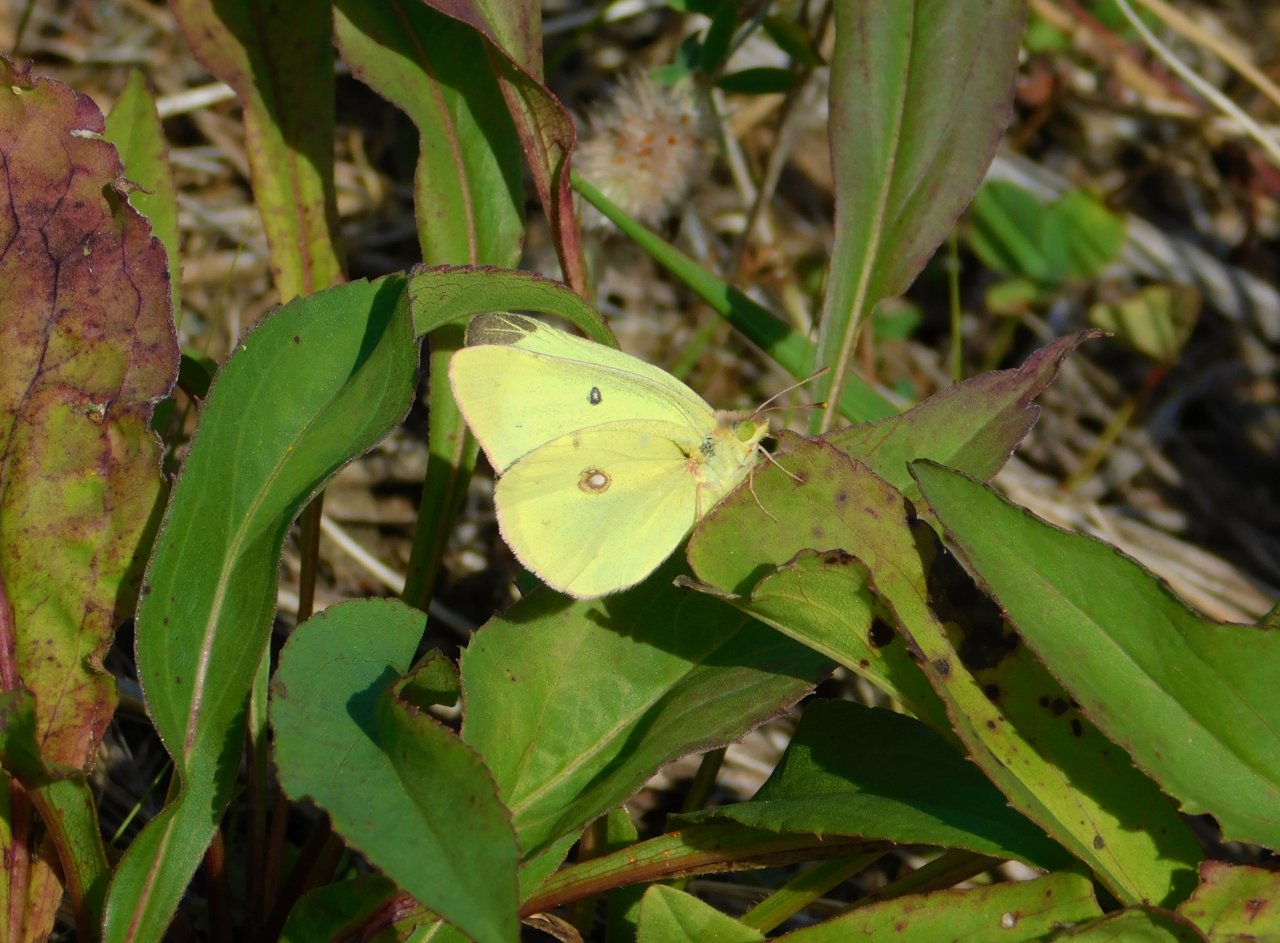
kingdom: Animalia
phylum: Arthropoda
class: Insecta
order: Lepidoptera
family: Pieridae
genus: Colias
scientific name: Colias philodice
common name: Clouded Sulphur
